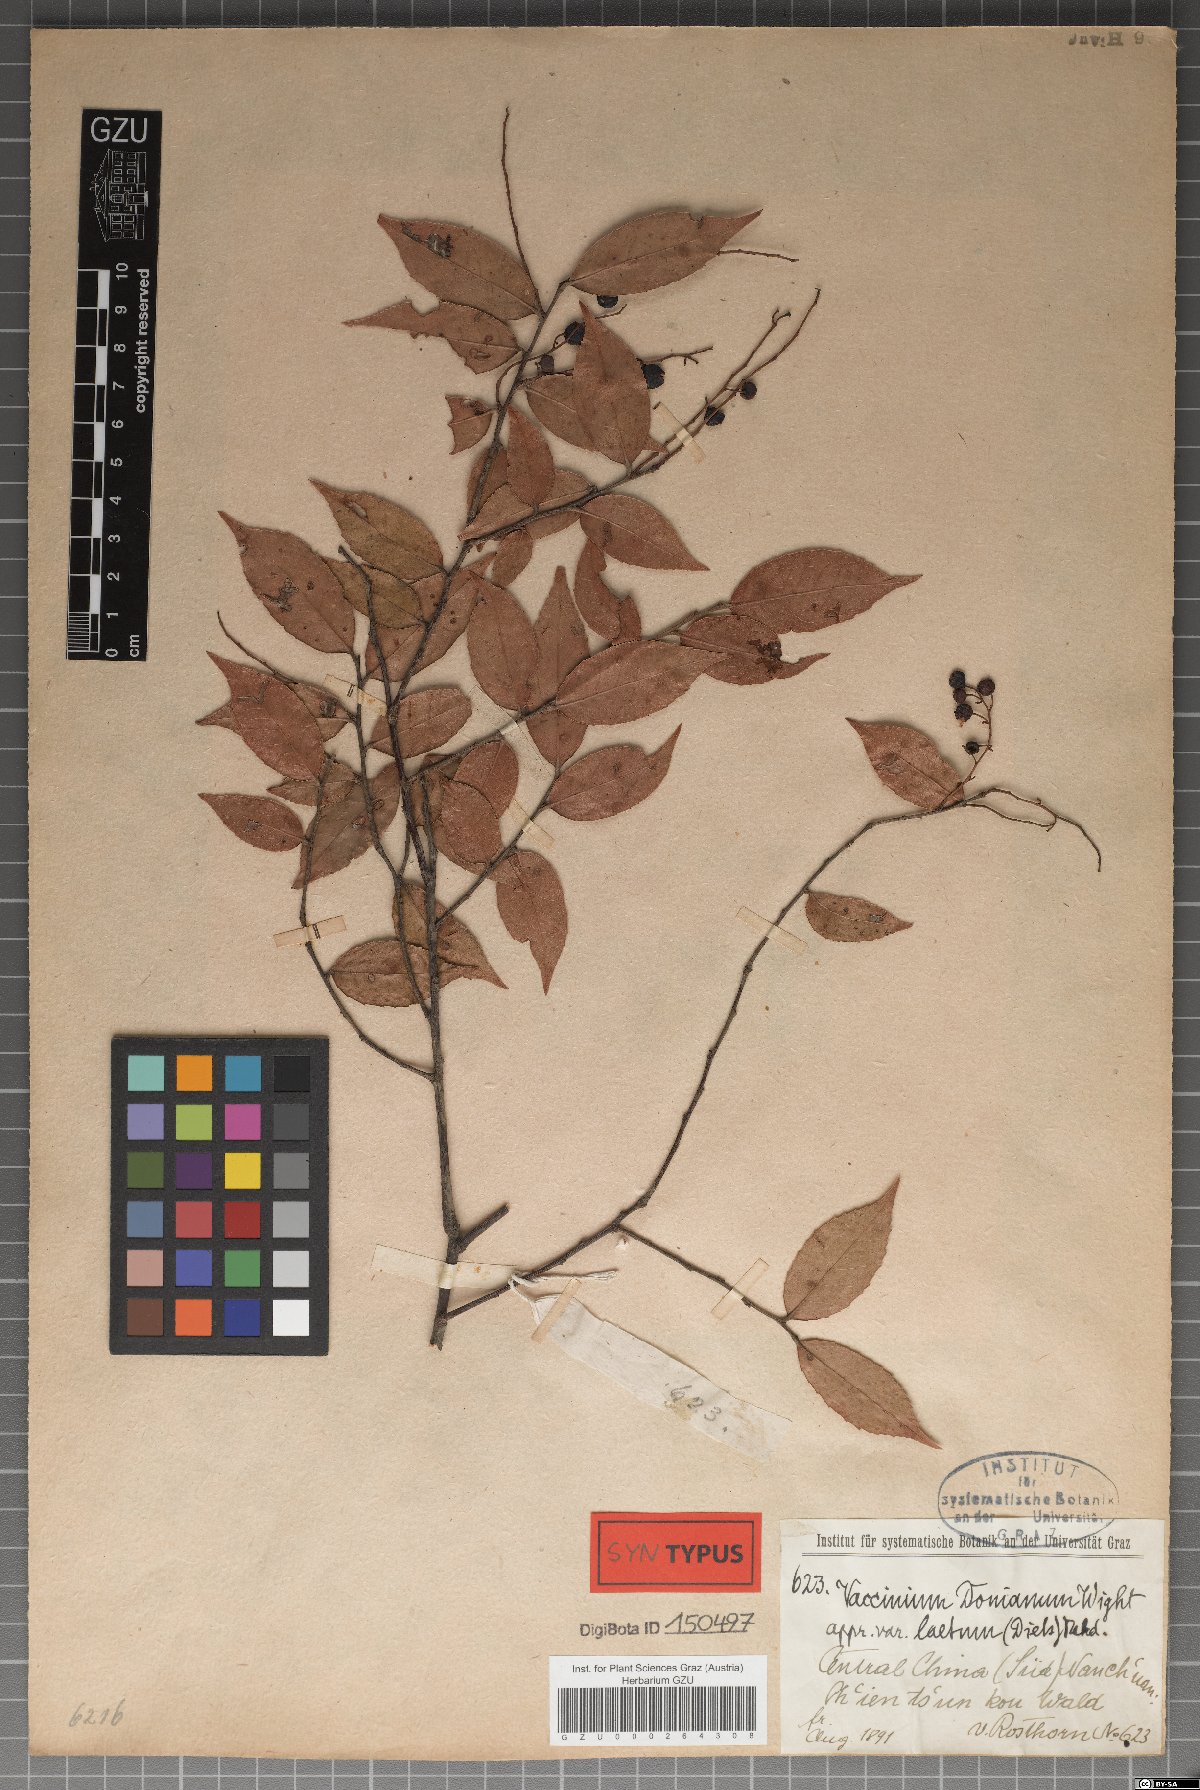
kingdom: Plantae
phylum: Tracheophyta
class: Magnoliopsida
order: Ericales
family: Ericaceae
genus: Vaccinium
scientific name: Vaccinium mandarinorum
